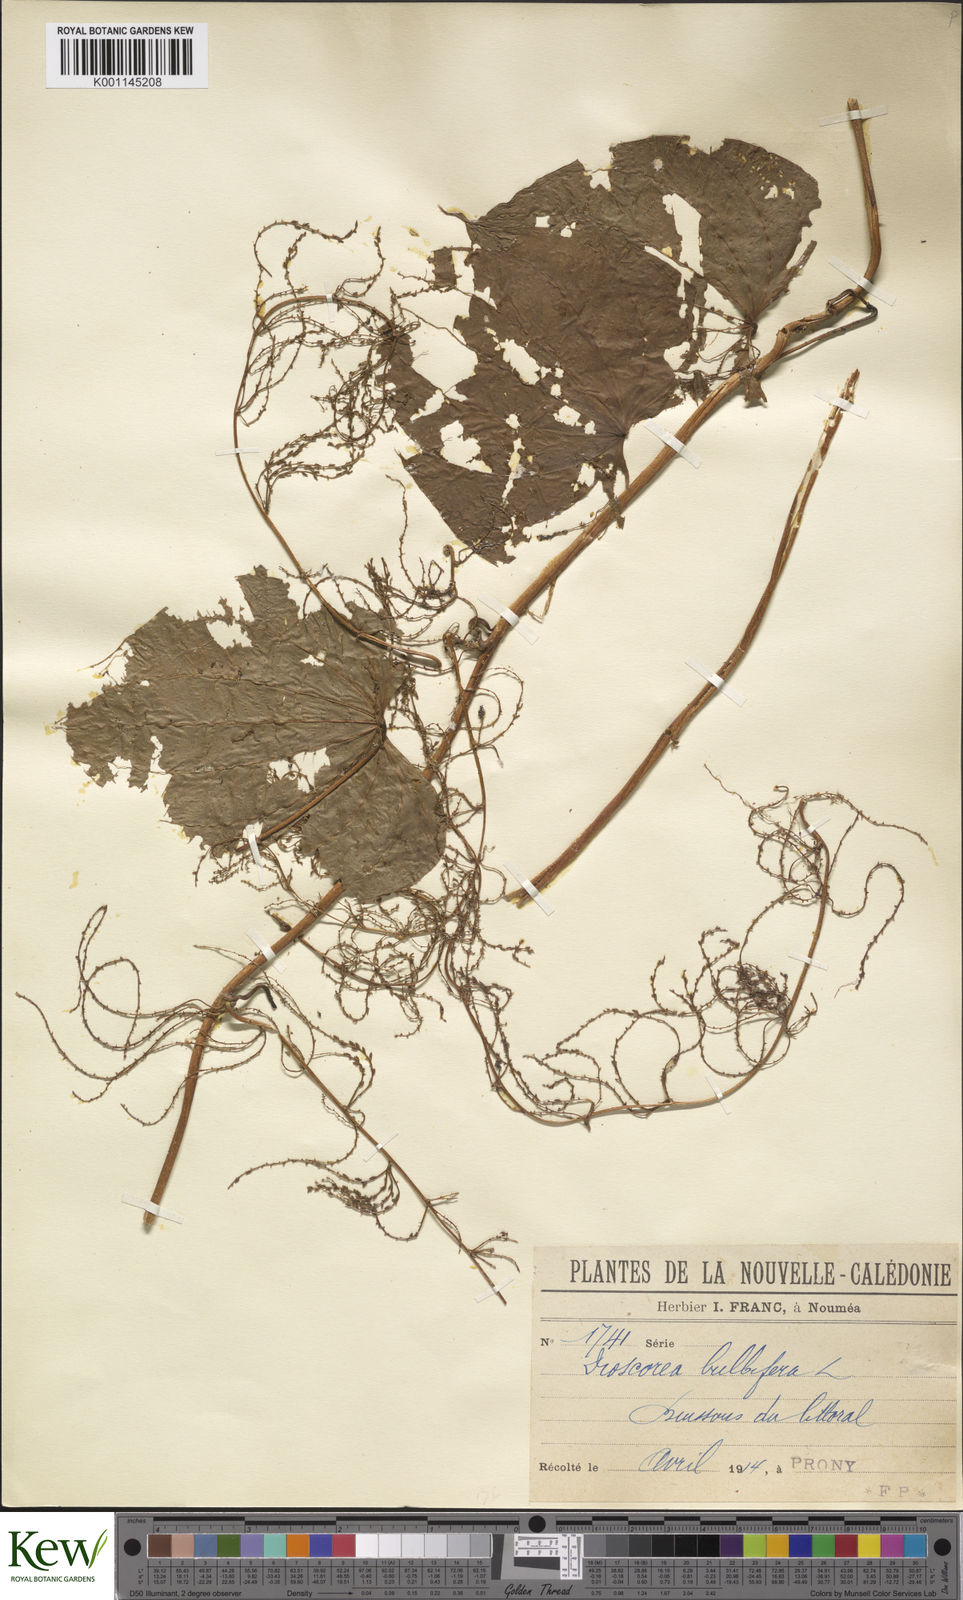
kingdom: Plantae
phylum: Tracheophyta
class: Liliopsida
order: Dioscoreales
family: Dioscoreaceae
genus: Dioscorea
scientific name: Dioscorea bulbifera
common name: Air yam
